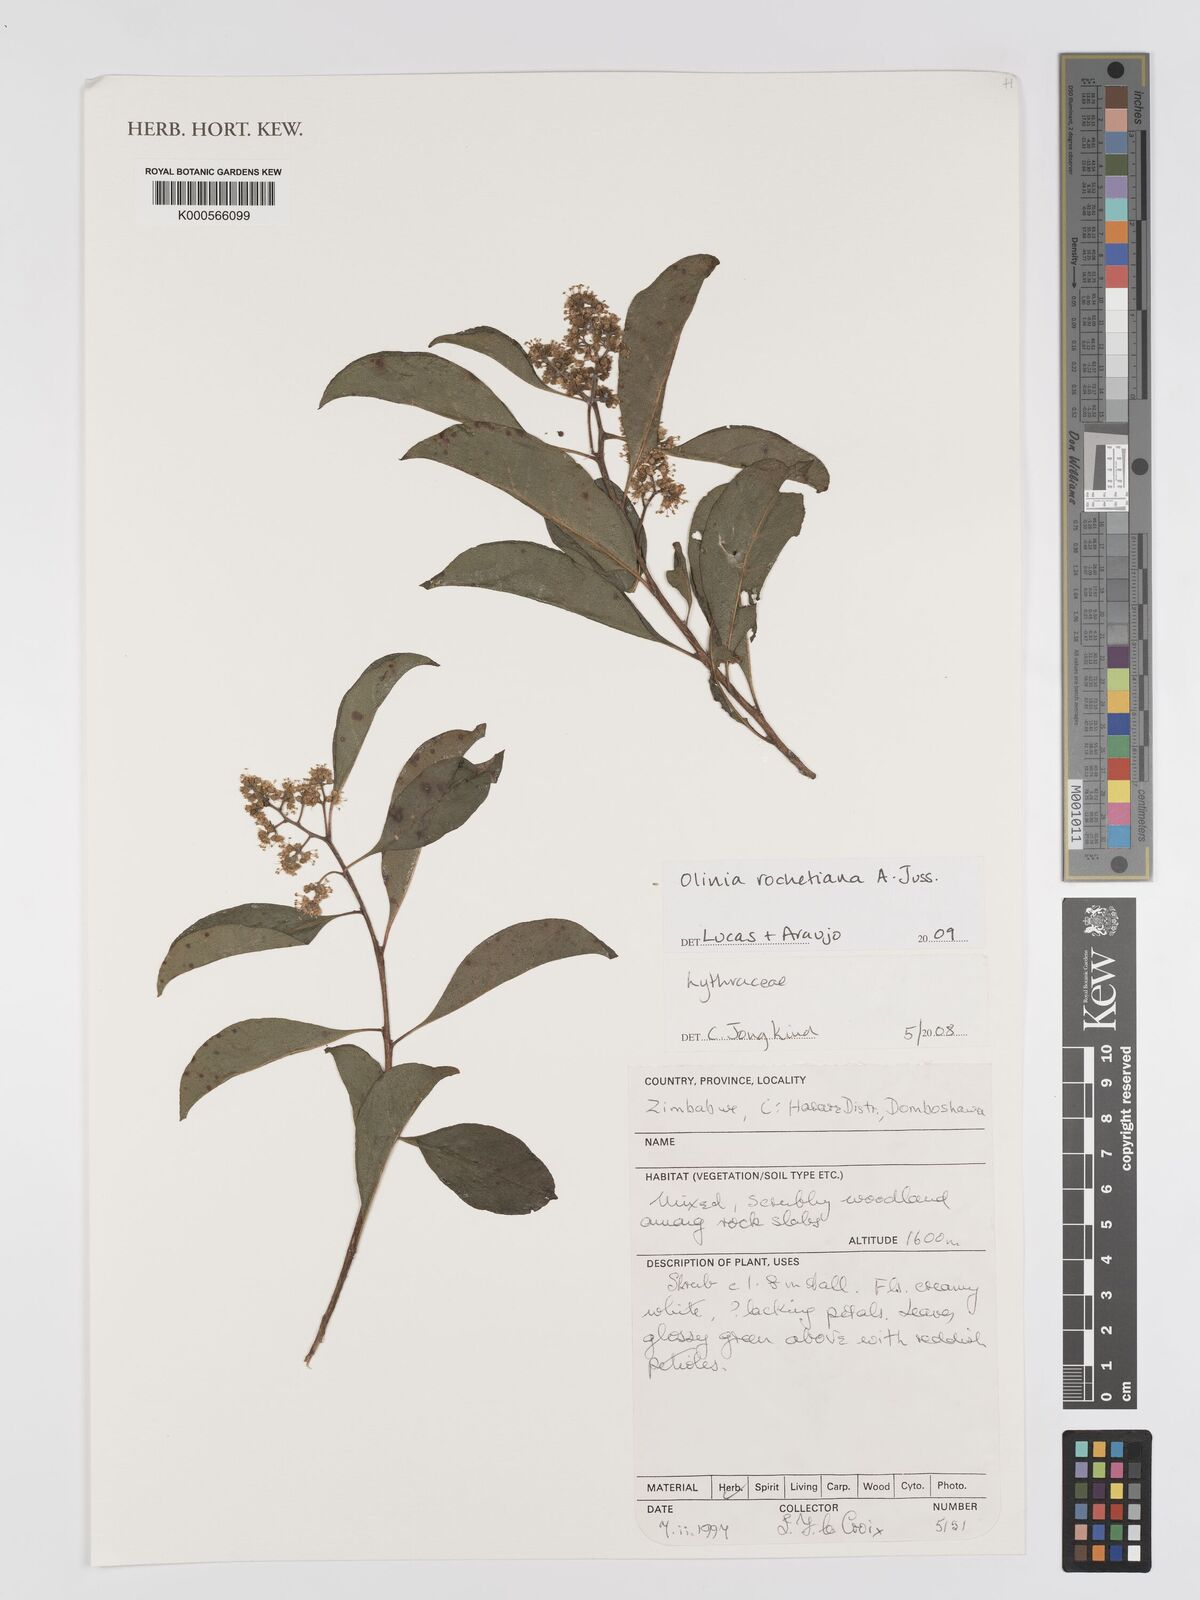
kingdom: Plantae
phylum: Tracheophyta
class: Magnoliopsida
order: Myrtales
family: Oliniaceae
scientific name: Oliniaceae
